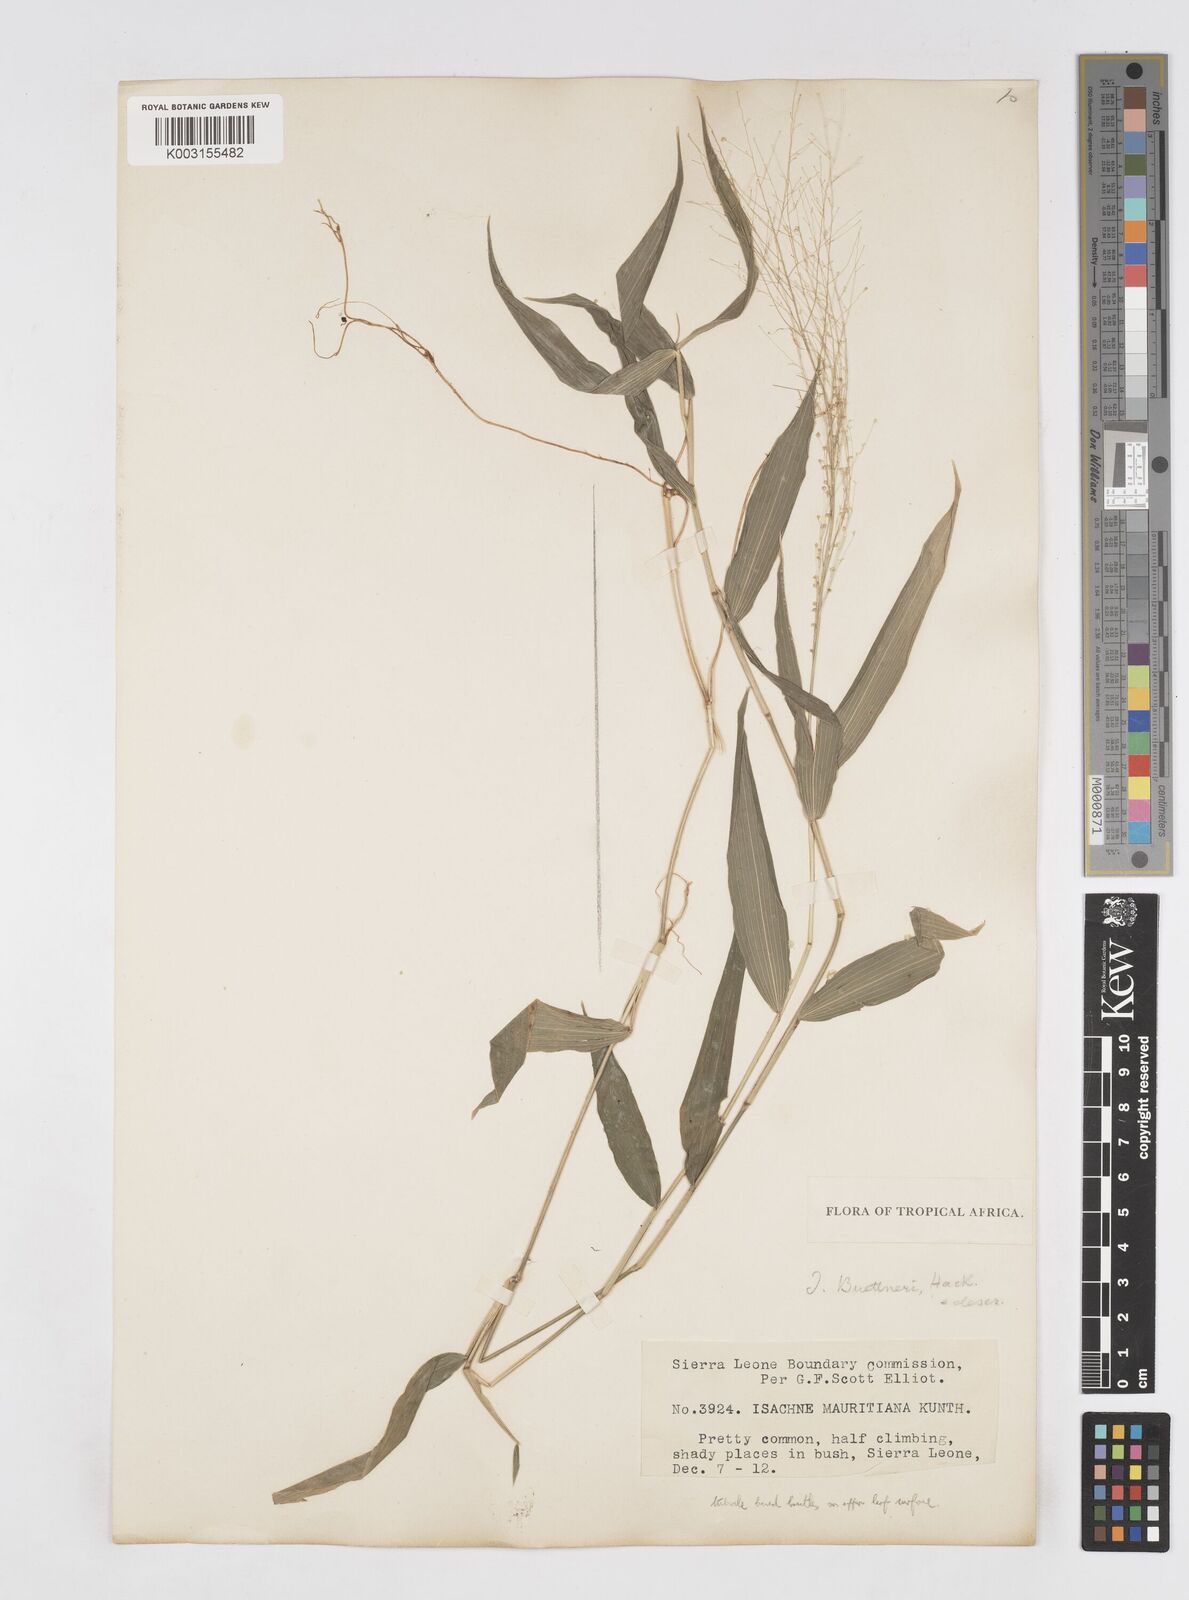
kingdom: Plantae
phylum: Tracheophyta
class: Liliopsida
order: Poales
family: Poaceae
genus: Isachne
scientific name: Isachne albens
